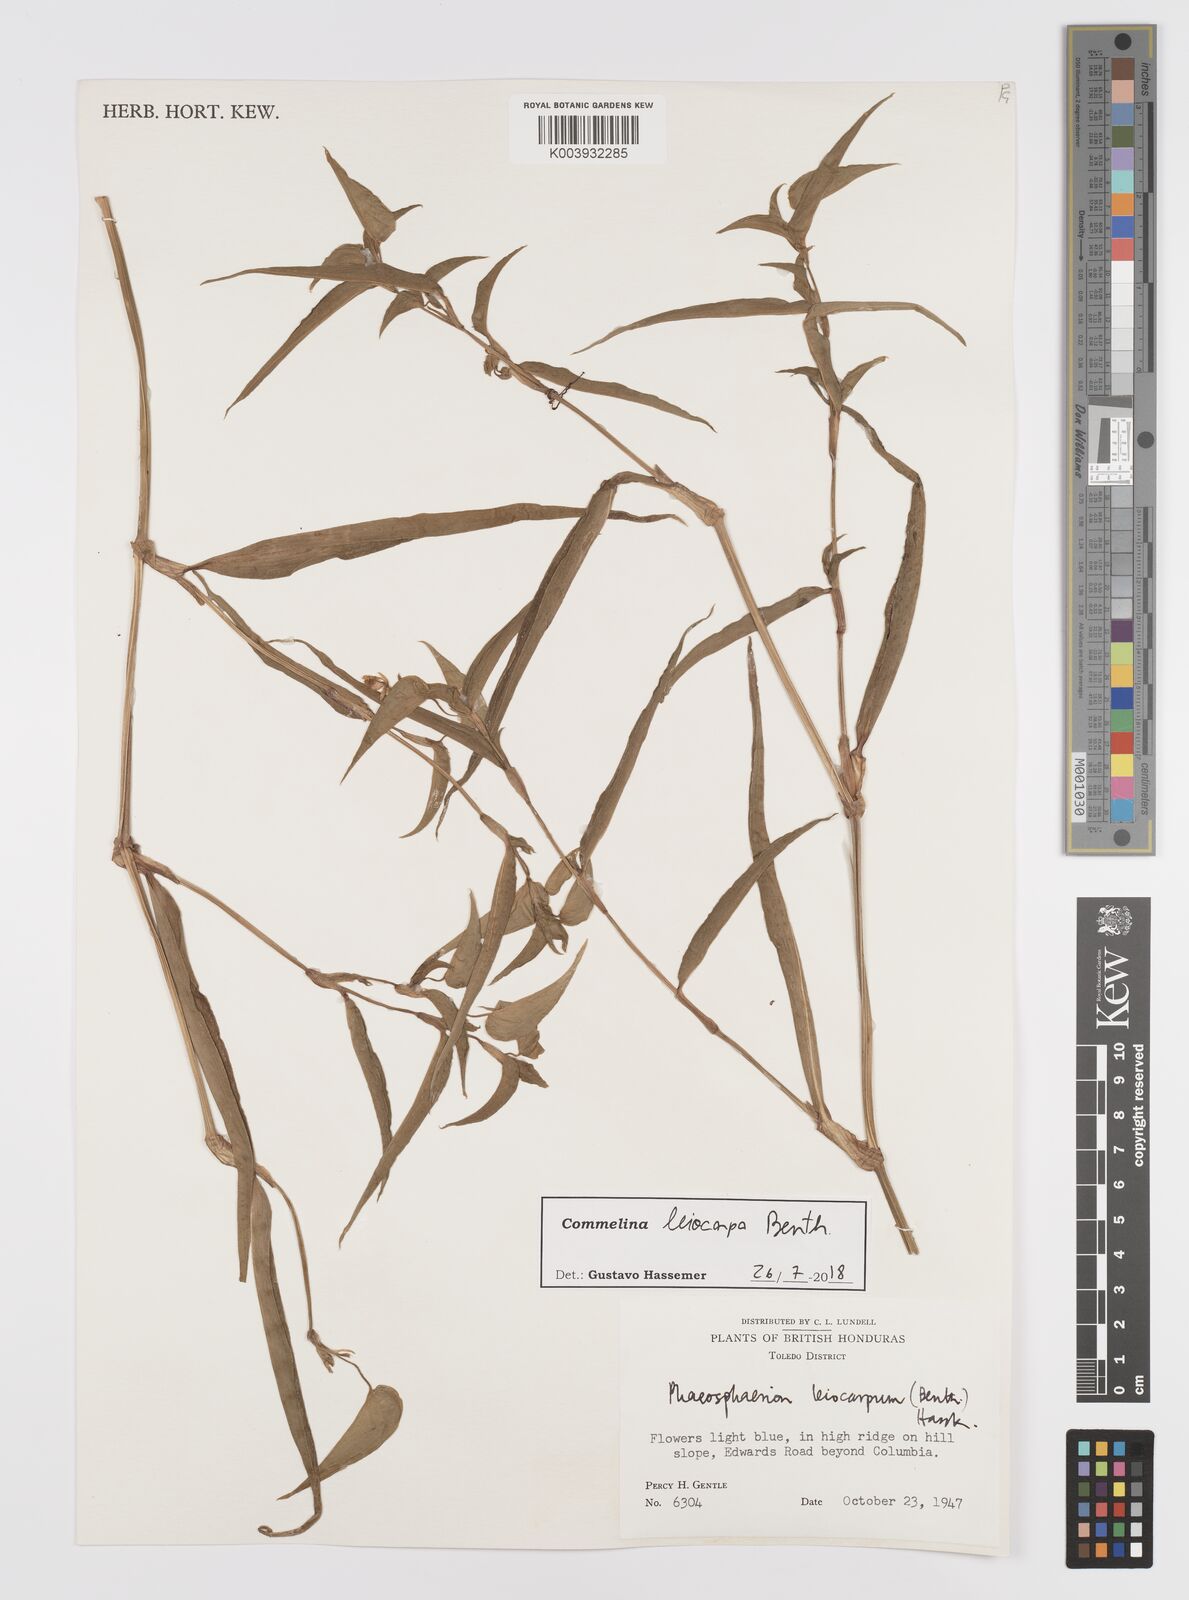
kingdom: Plantae
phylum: Tracheophyta
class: Liliopsida
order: Commelinales
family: Commelinaceae
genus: Commelina
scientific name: Commelina leiocarpa
